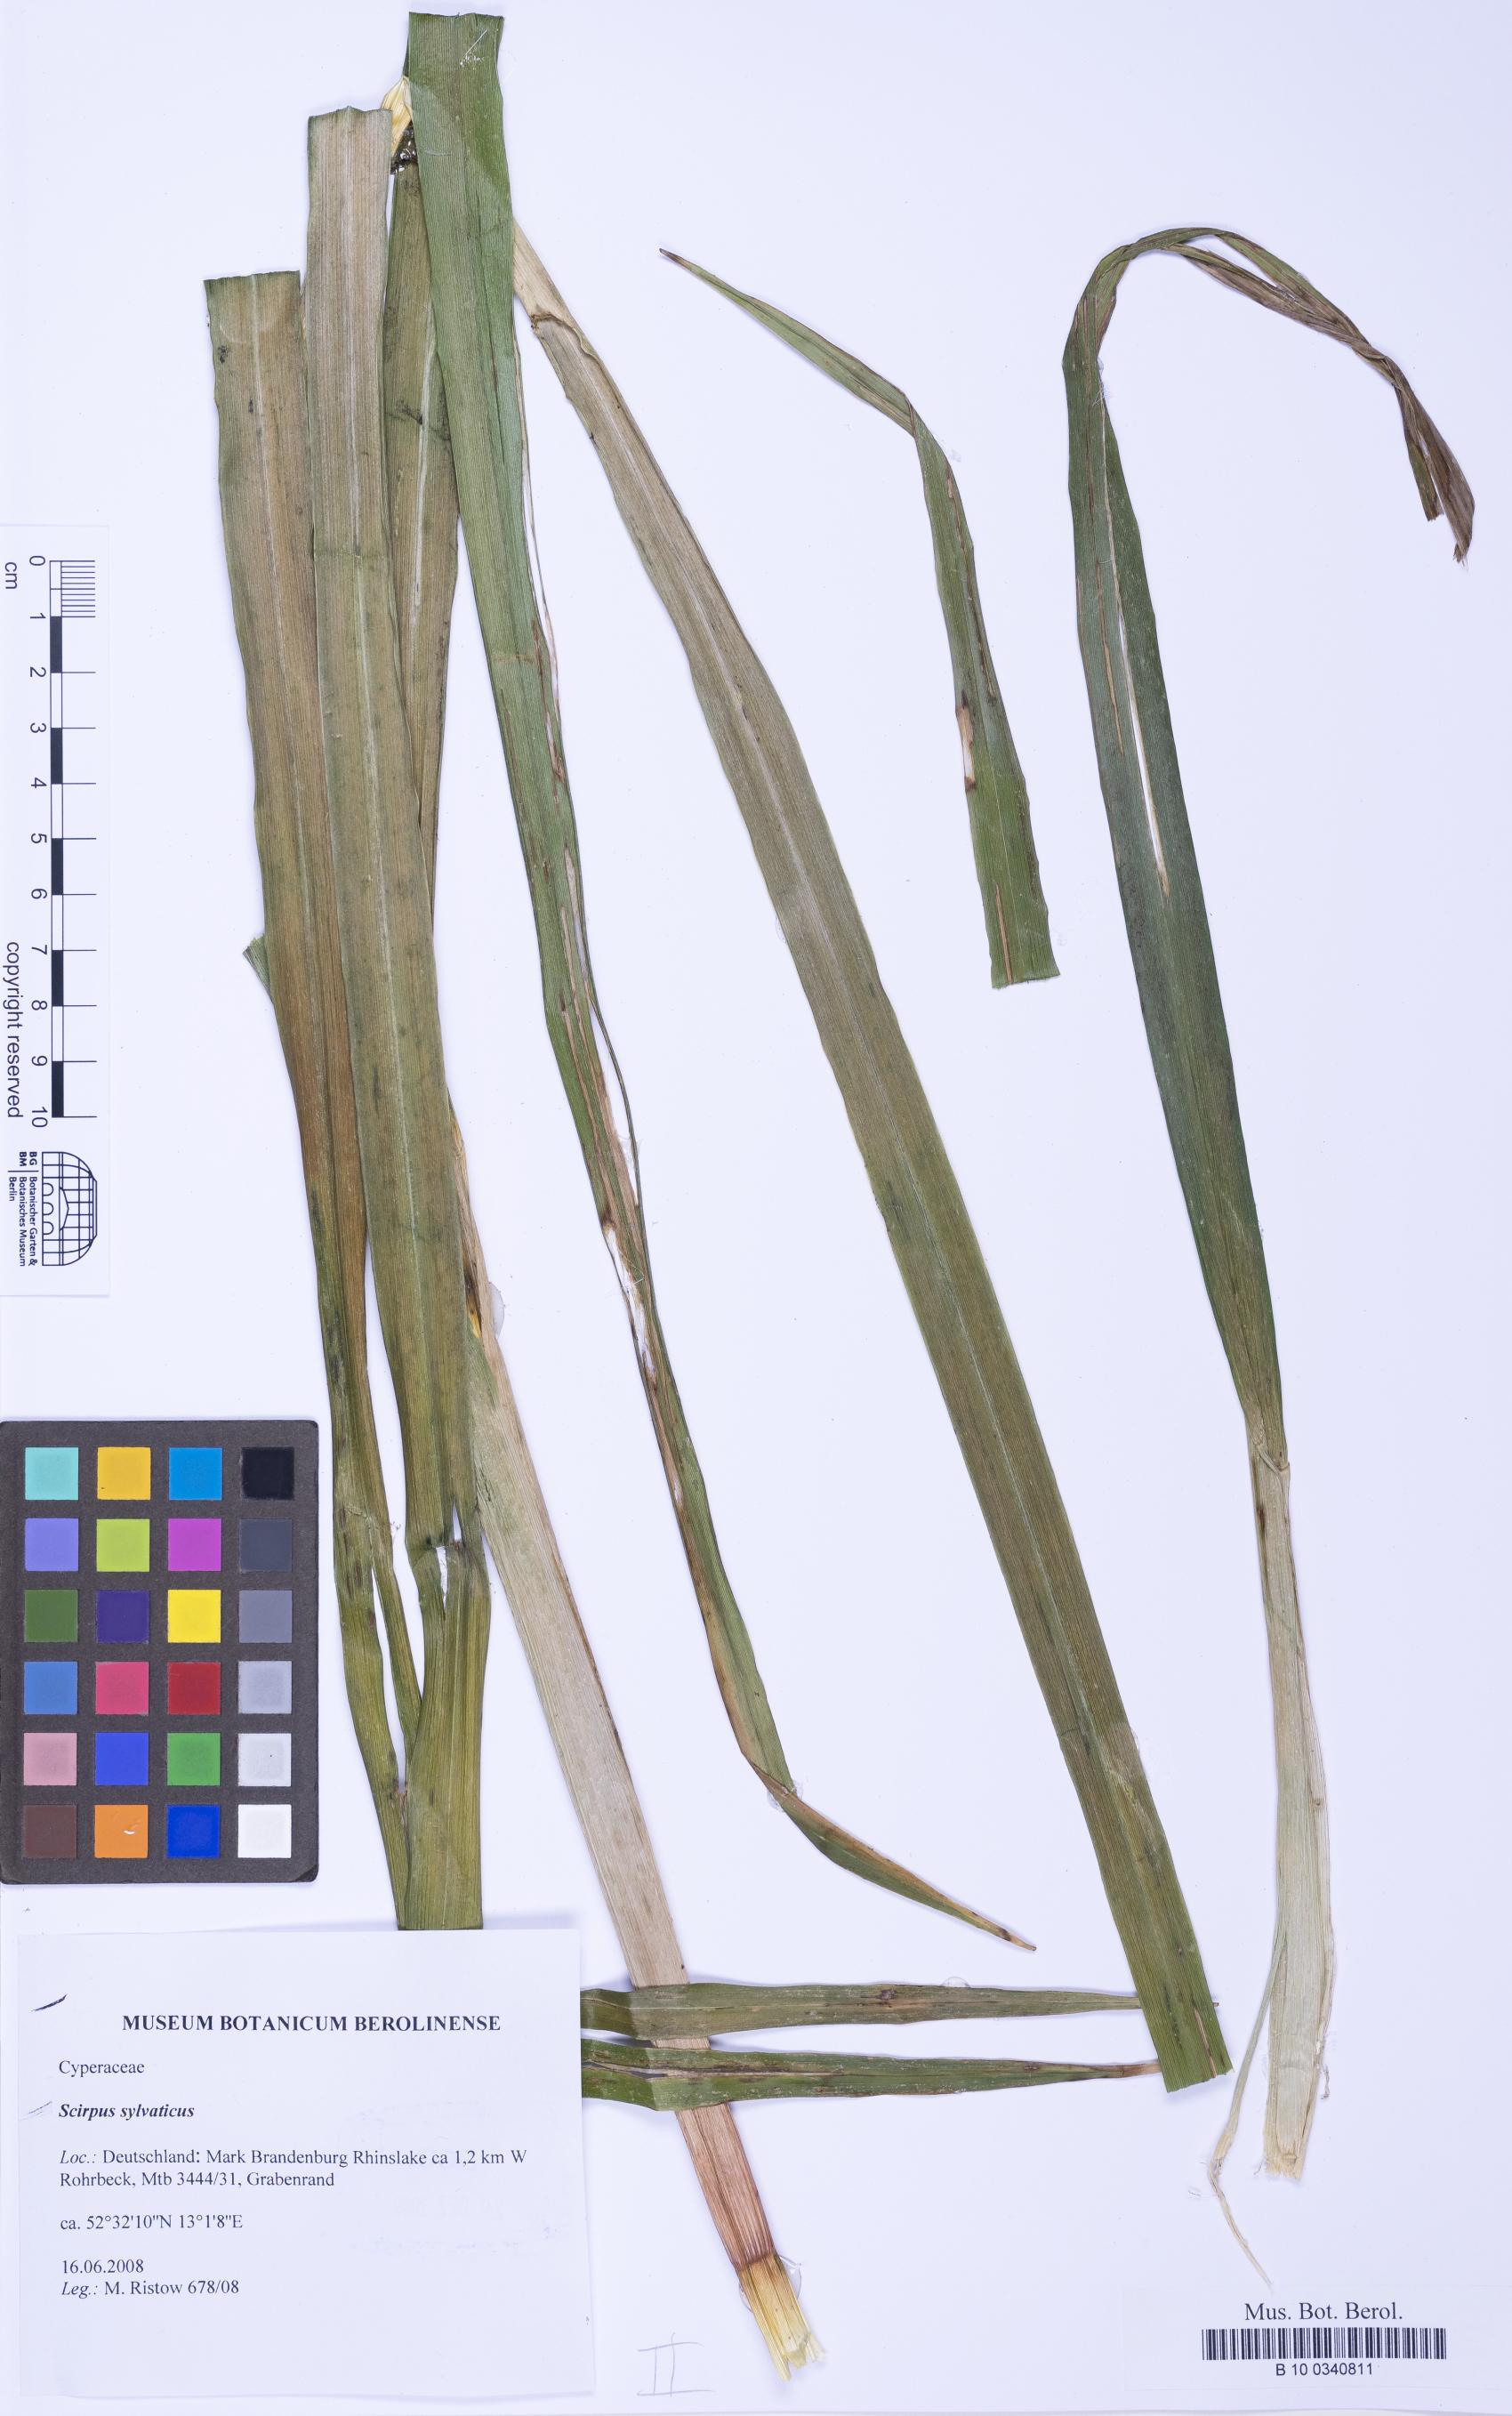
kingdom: Plantae
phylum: Tracheophyta
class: Liliopsida
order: Poales
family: Cyperaceae
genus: Scirpus
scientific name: Scirpus sylvaticus
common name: Wood club-rush
